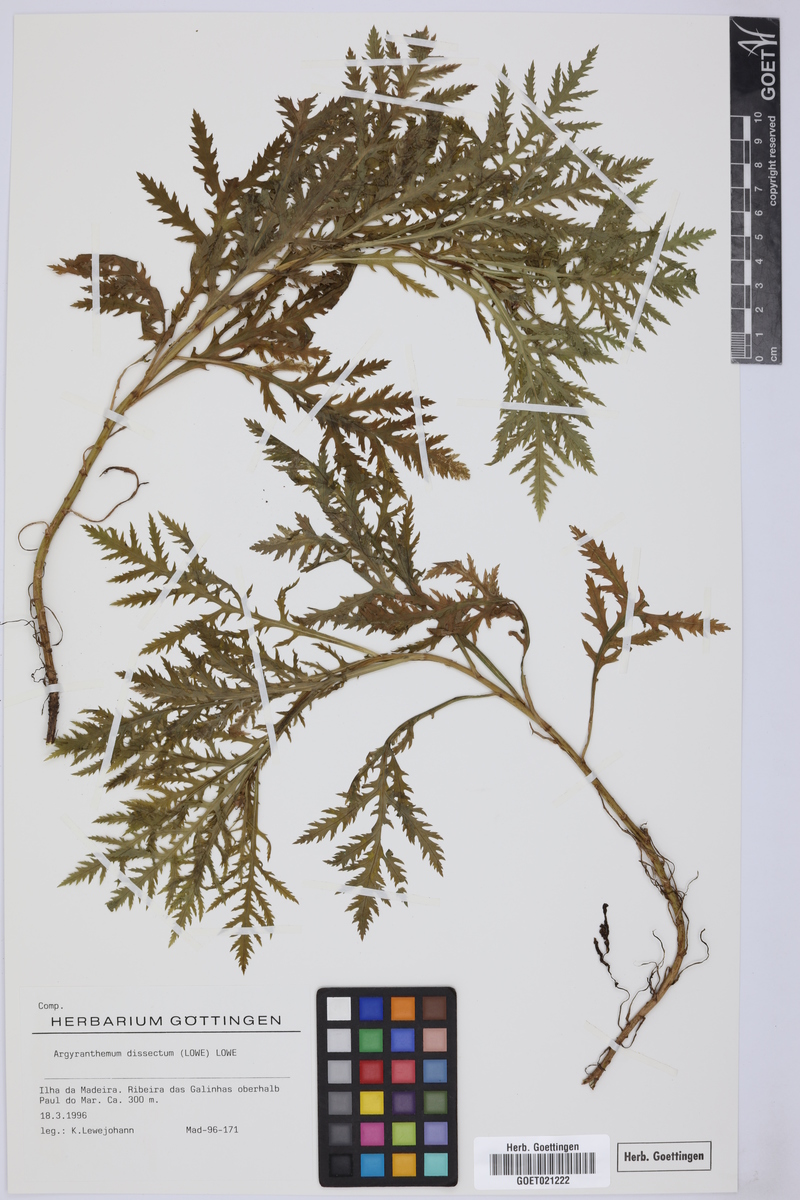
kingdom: Plantae
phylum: Tracheophyta
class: Magnoliopsida
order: Asterales
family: Asteraceae
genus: Argyranthemum
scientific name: Argyranthemum dissectum
